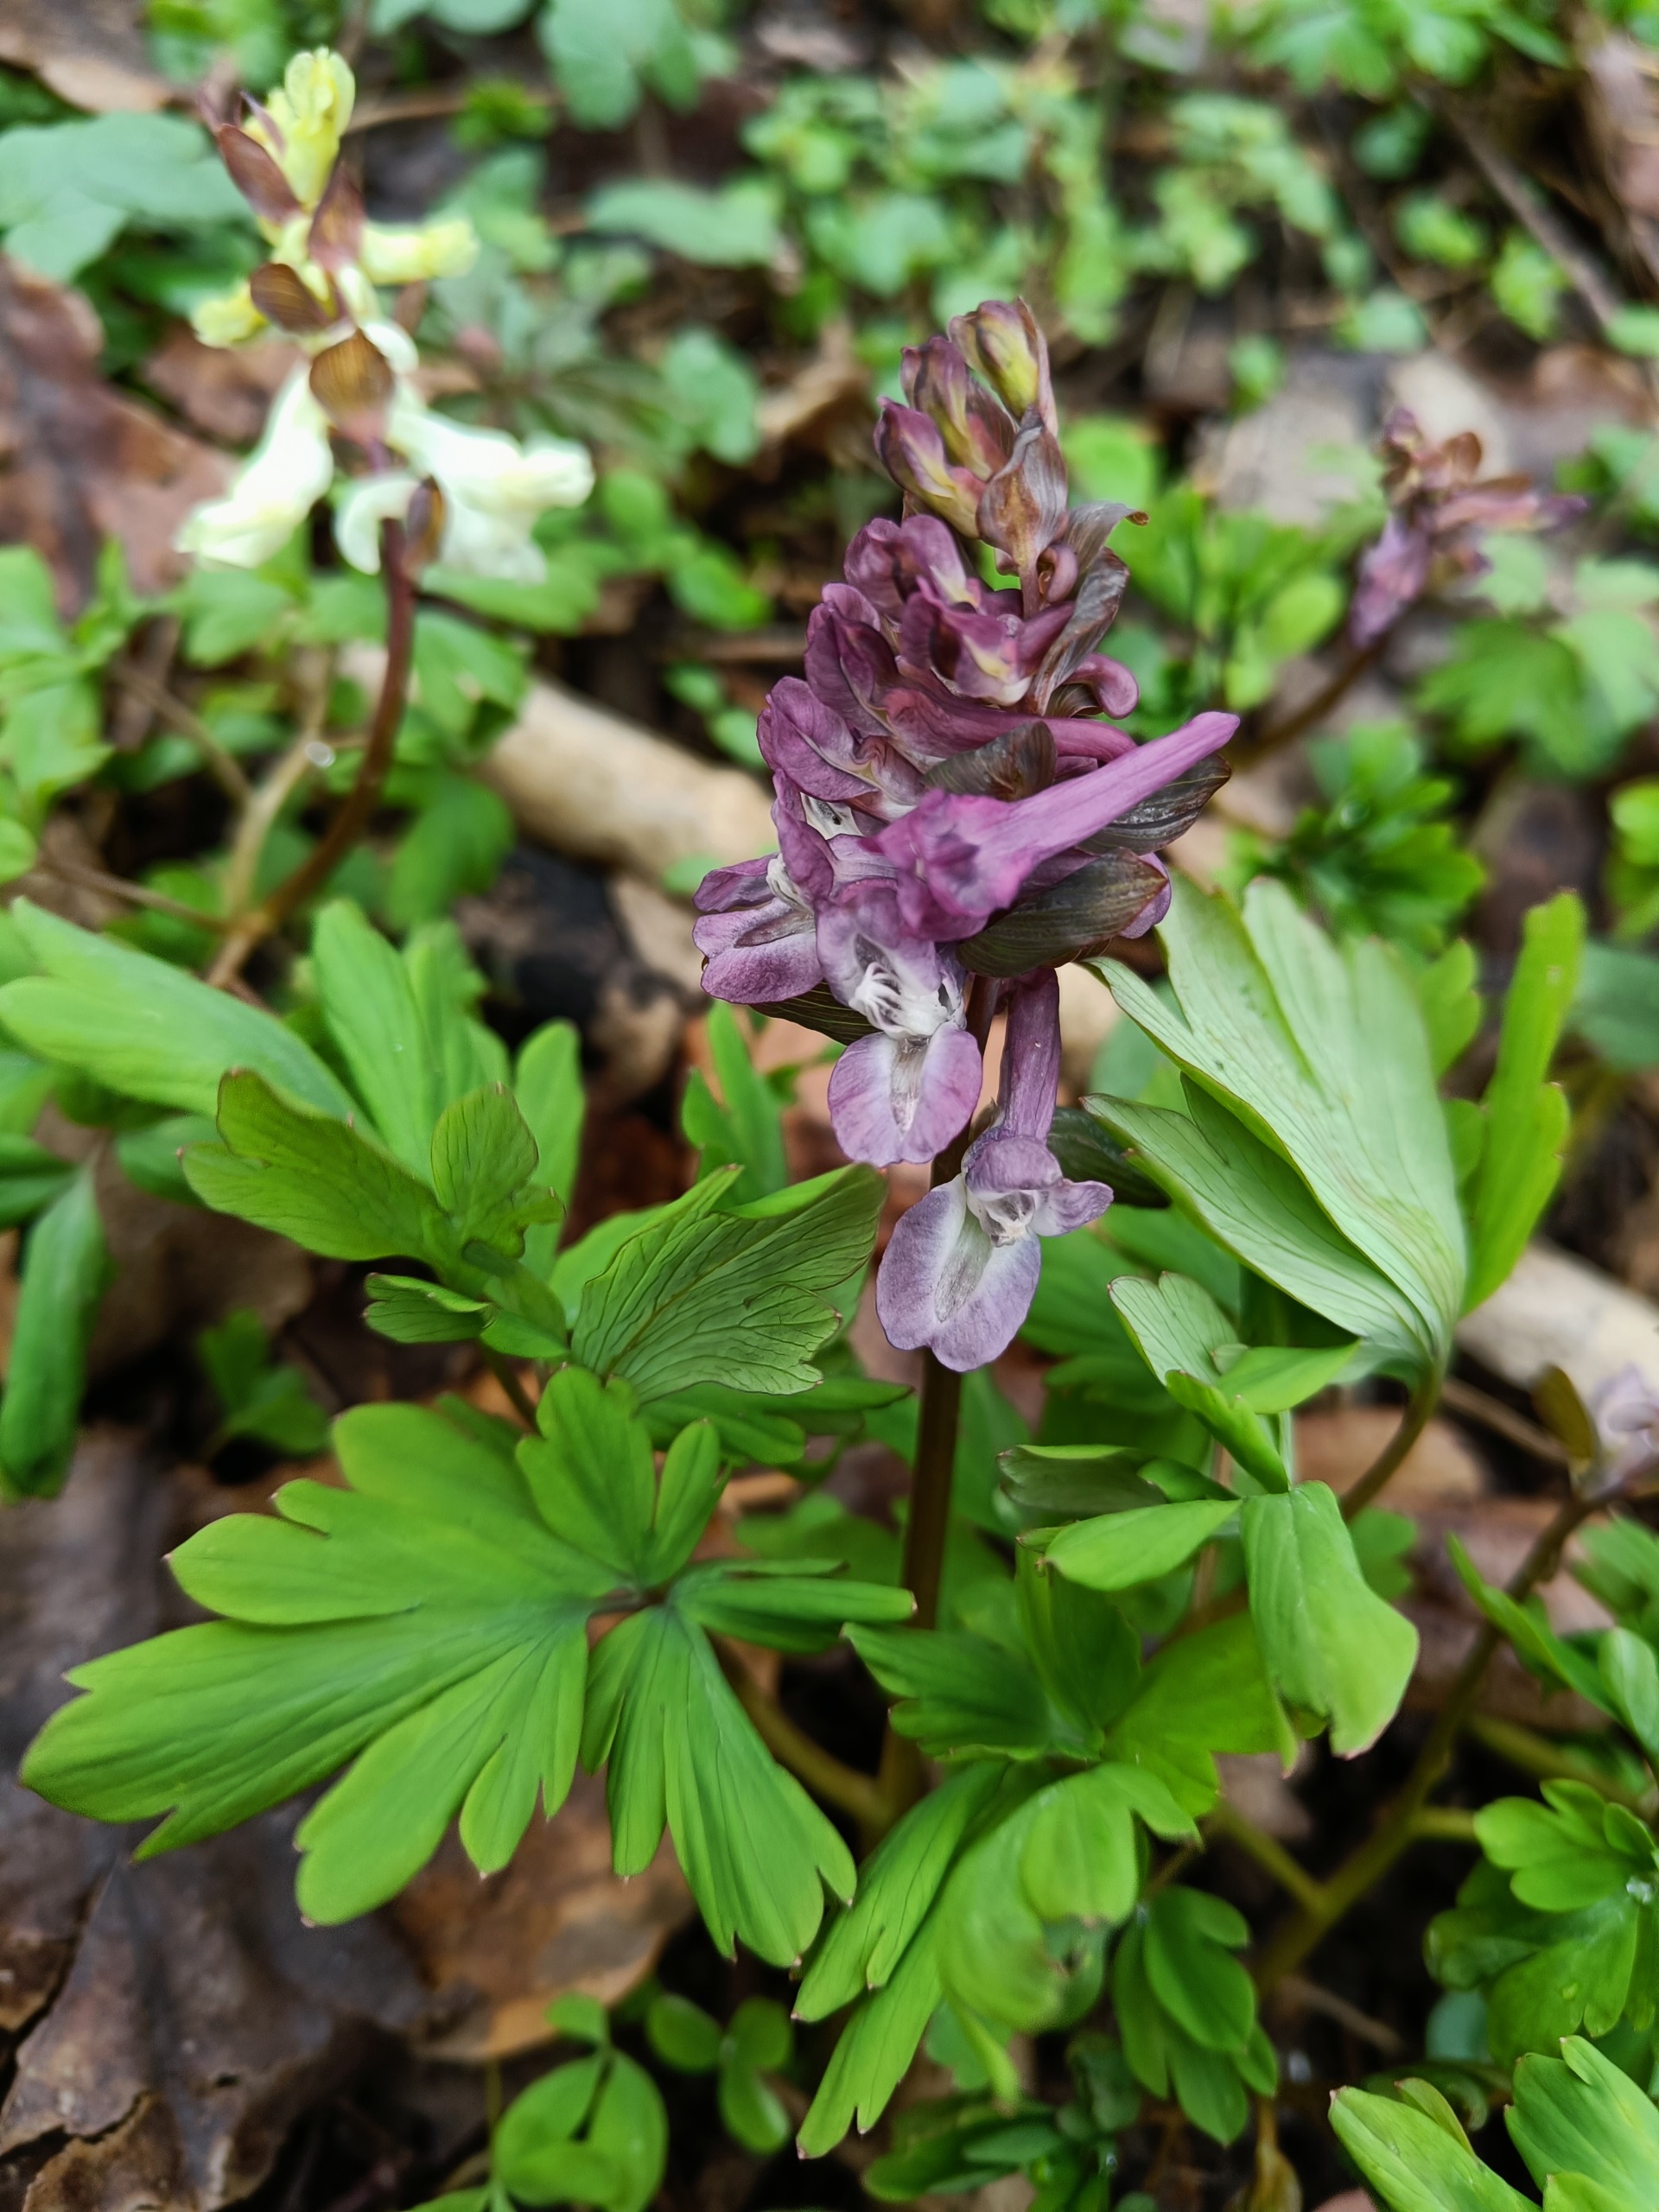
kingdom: Plantae
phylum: Tracheophyta
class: Magnoliopsida
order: Ranunculales
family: Papaveraceae
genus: Corydalis
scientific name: Corydalis cava
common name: Hulrodet lærkespore
